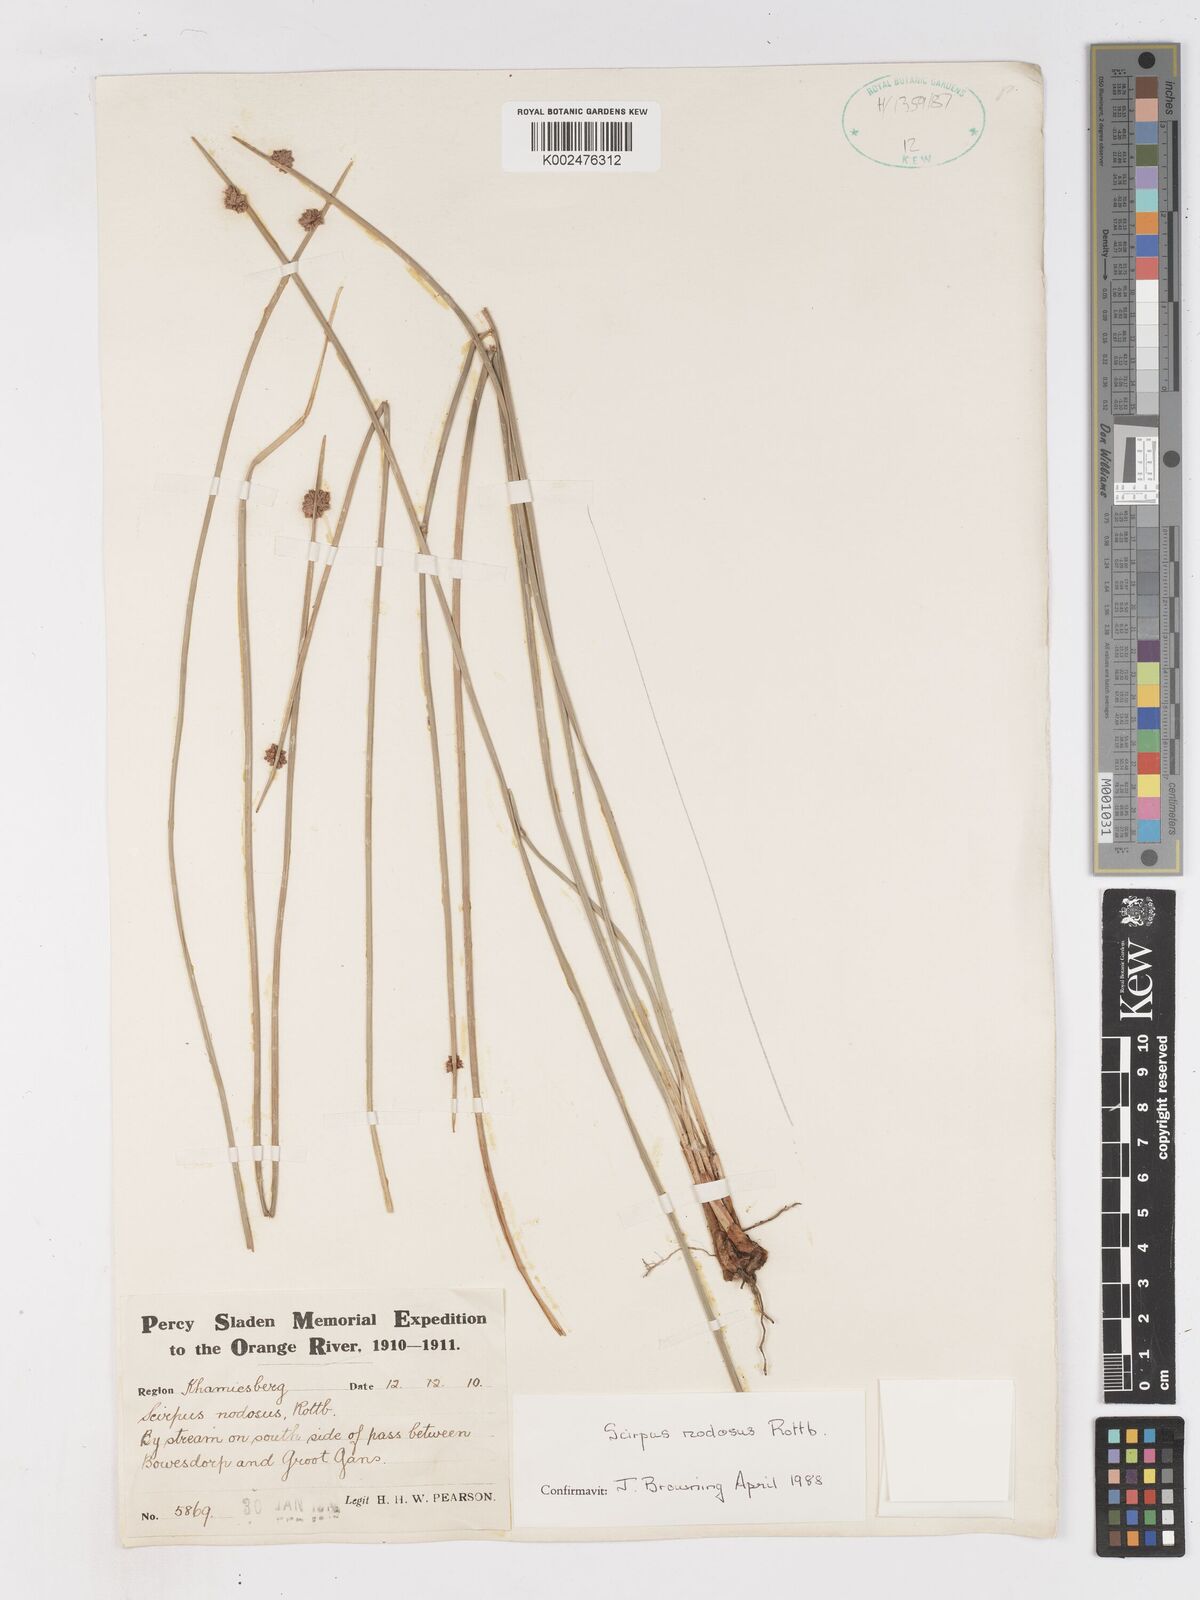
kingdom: Plantae
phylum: Tracheophyta
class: Liliopsida
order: Poales
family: Cyperaceae
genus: Ficinia
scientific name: Ficinia nodosa
